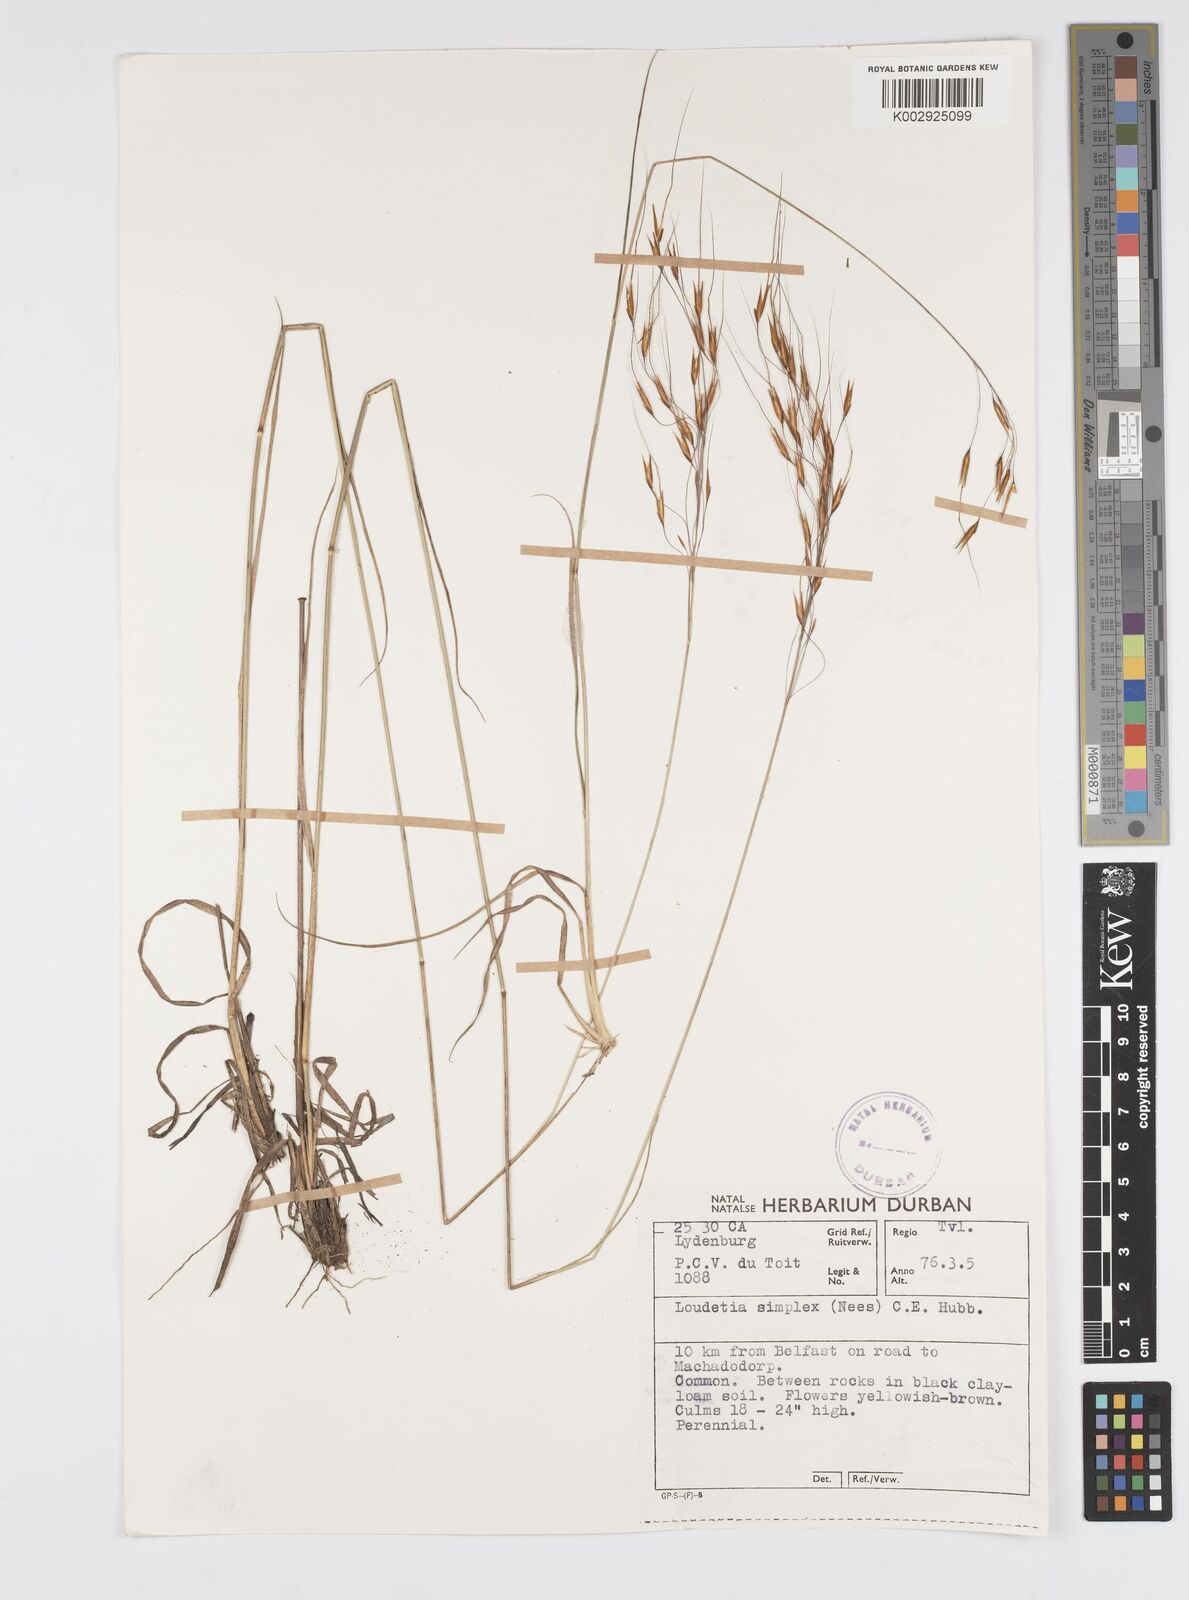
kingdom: Plantae
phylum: Tracheophyta
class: Liliopsida
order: Poales
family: Poaceae
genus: Loudetia
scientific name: Loudetia simplex
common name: Common russet grass
